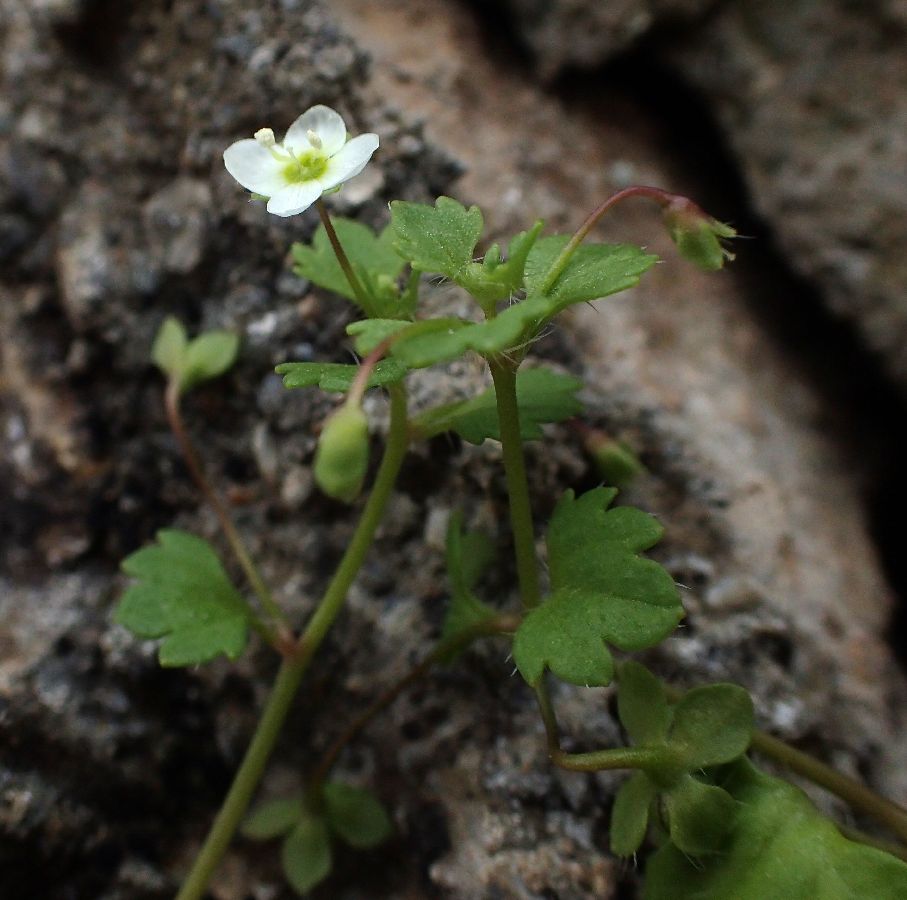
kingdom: Plantae
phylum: Tracheophyta
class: Magnoliopsida
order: Lamiales
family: Plantaginaceae
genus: Veronica
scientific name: Veronica cymbalaria
